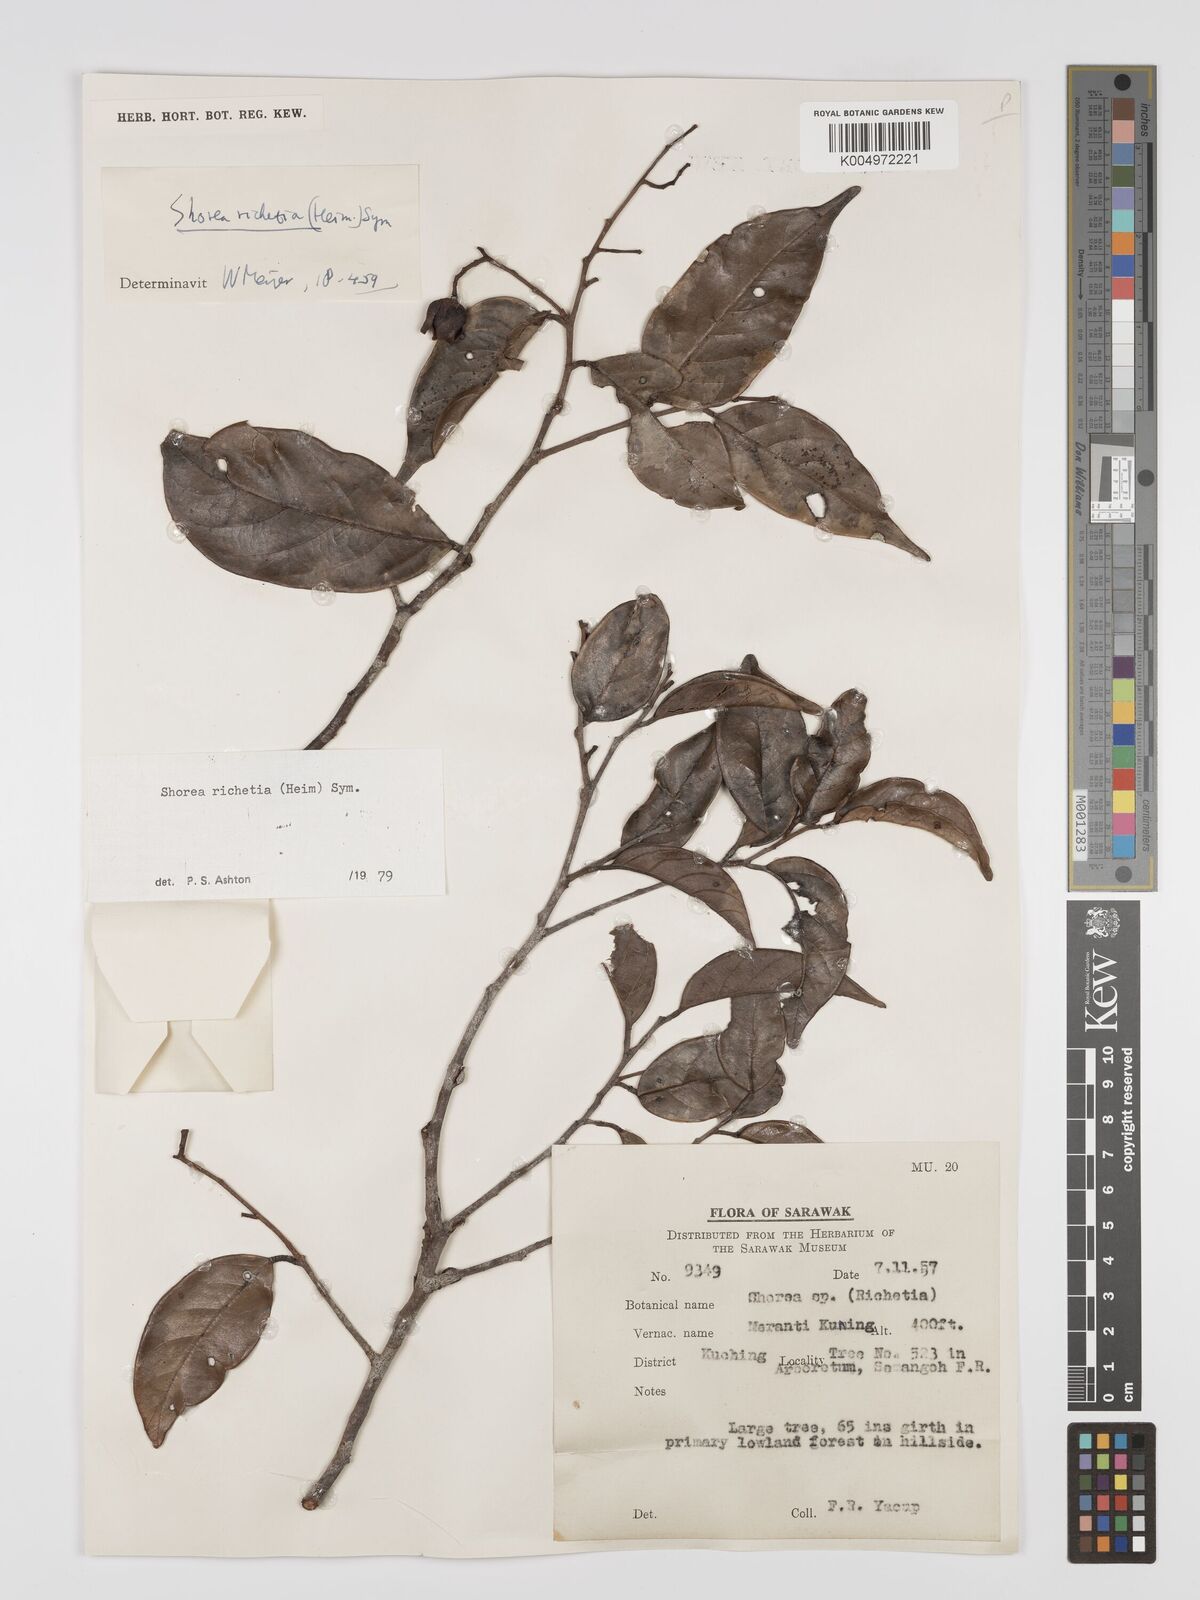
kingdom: Plantae
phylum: Tracheophyta
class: Magnoliopsida
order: Malvales
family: Dipterocarpaceae
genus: Shorea
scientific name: Shorea richetia
